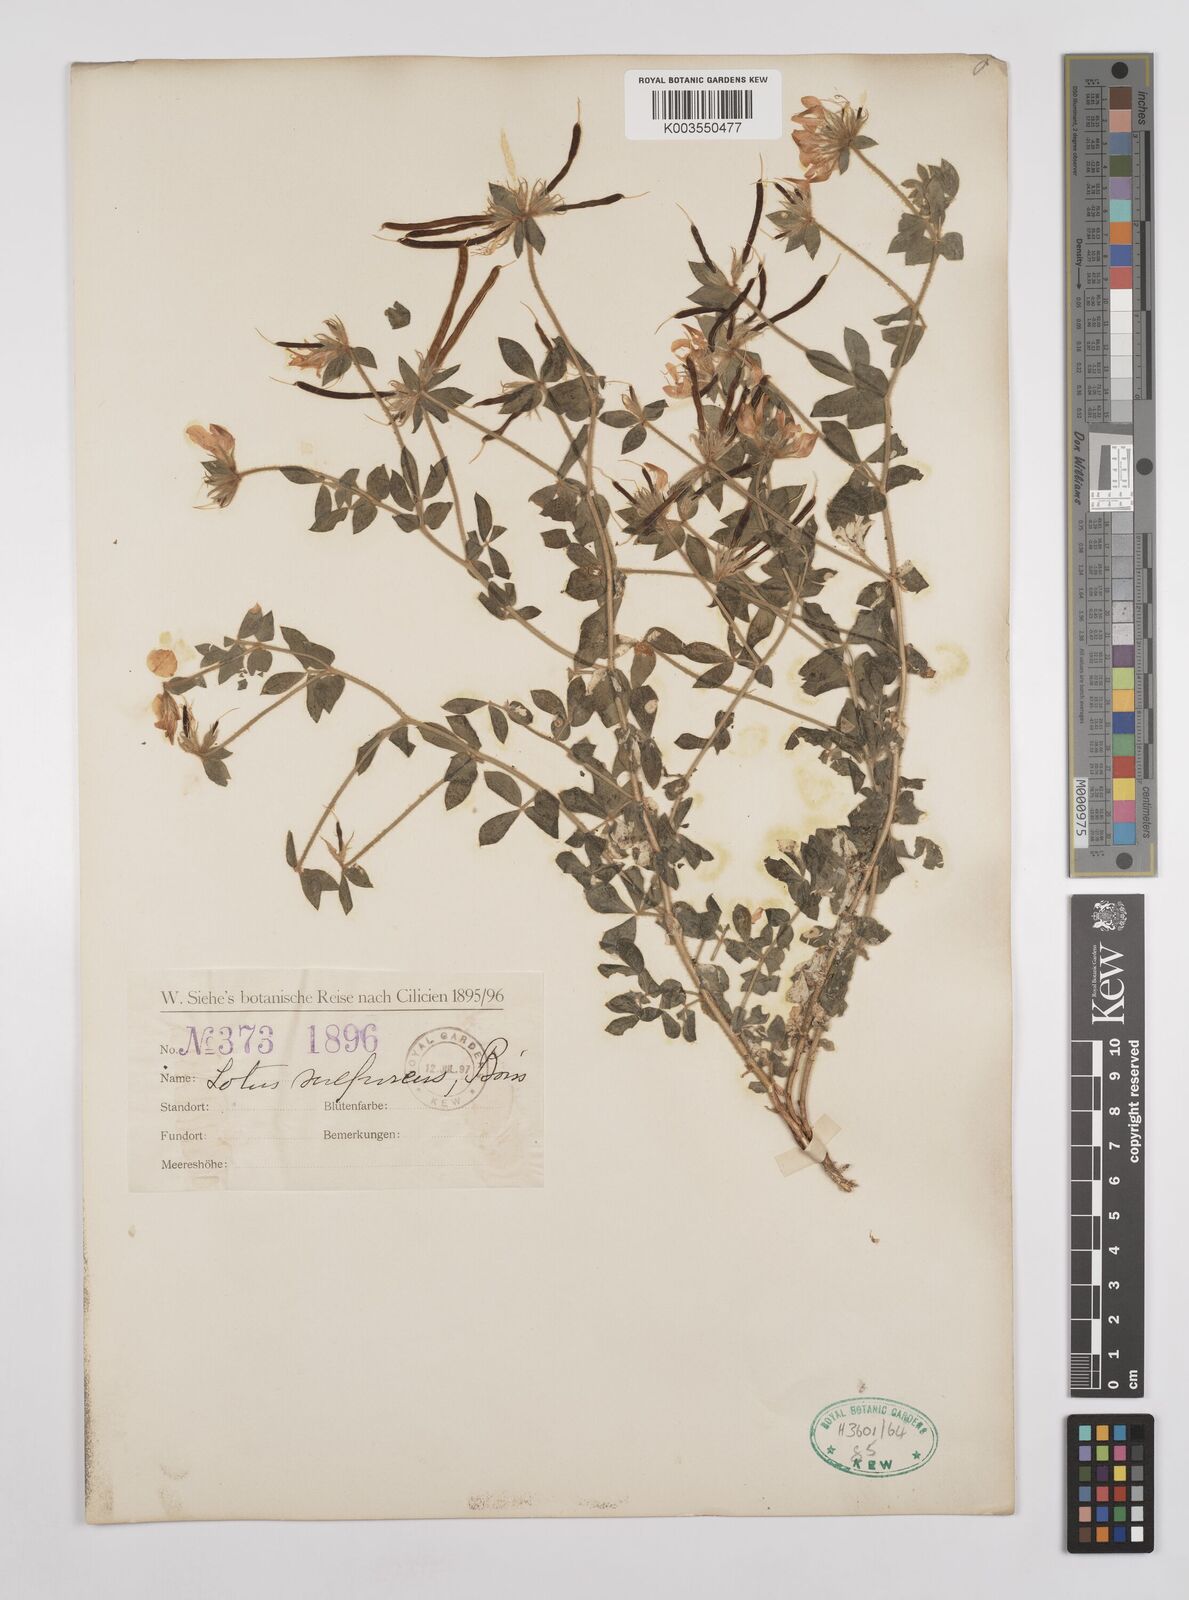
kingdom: Plantae
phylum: Tracheophyta
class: Magnoliopsida
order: Fabales
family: Fabaceae
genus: Lotus
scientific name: Lotus aegaeus
